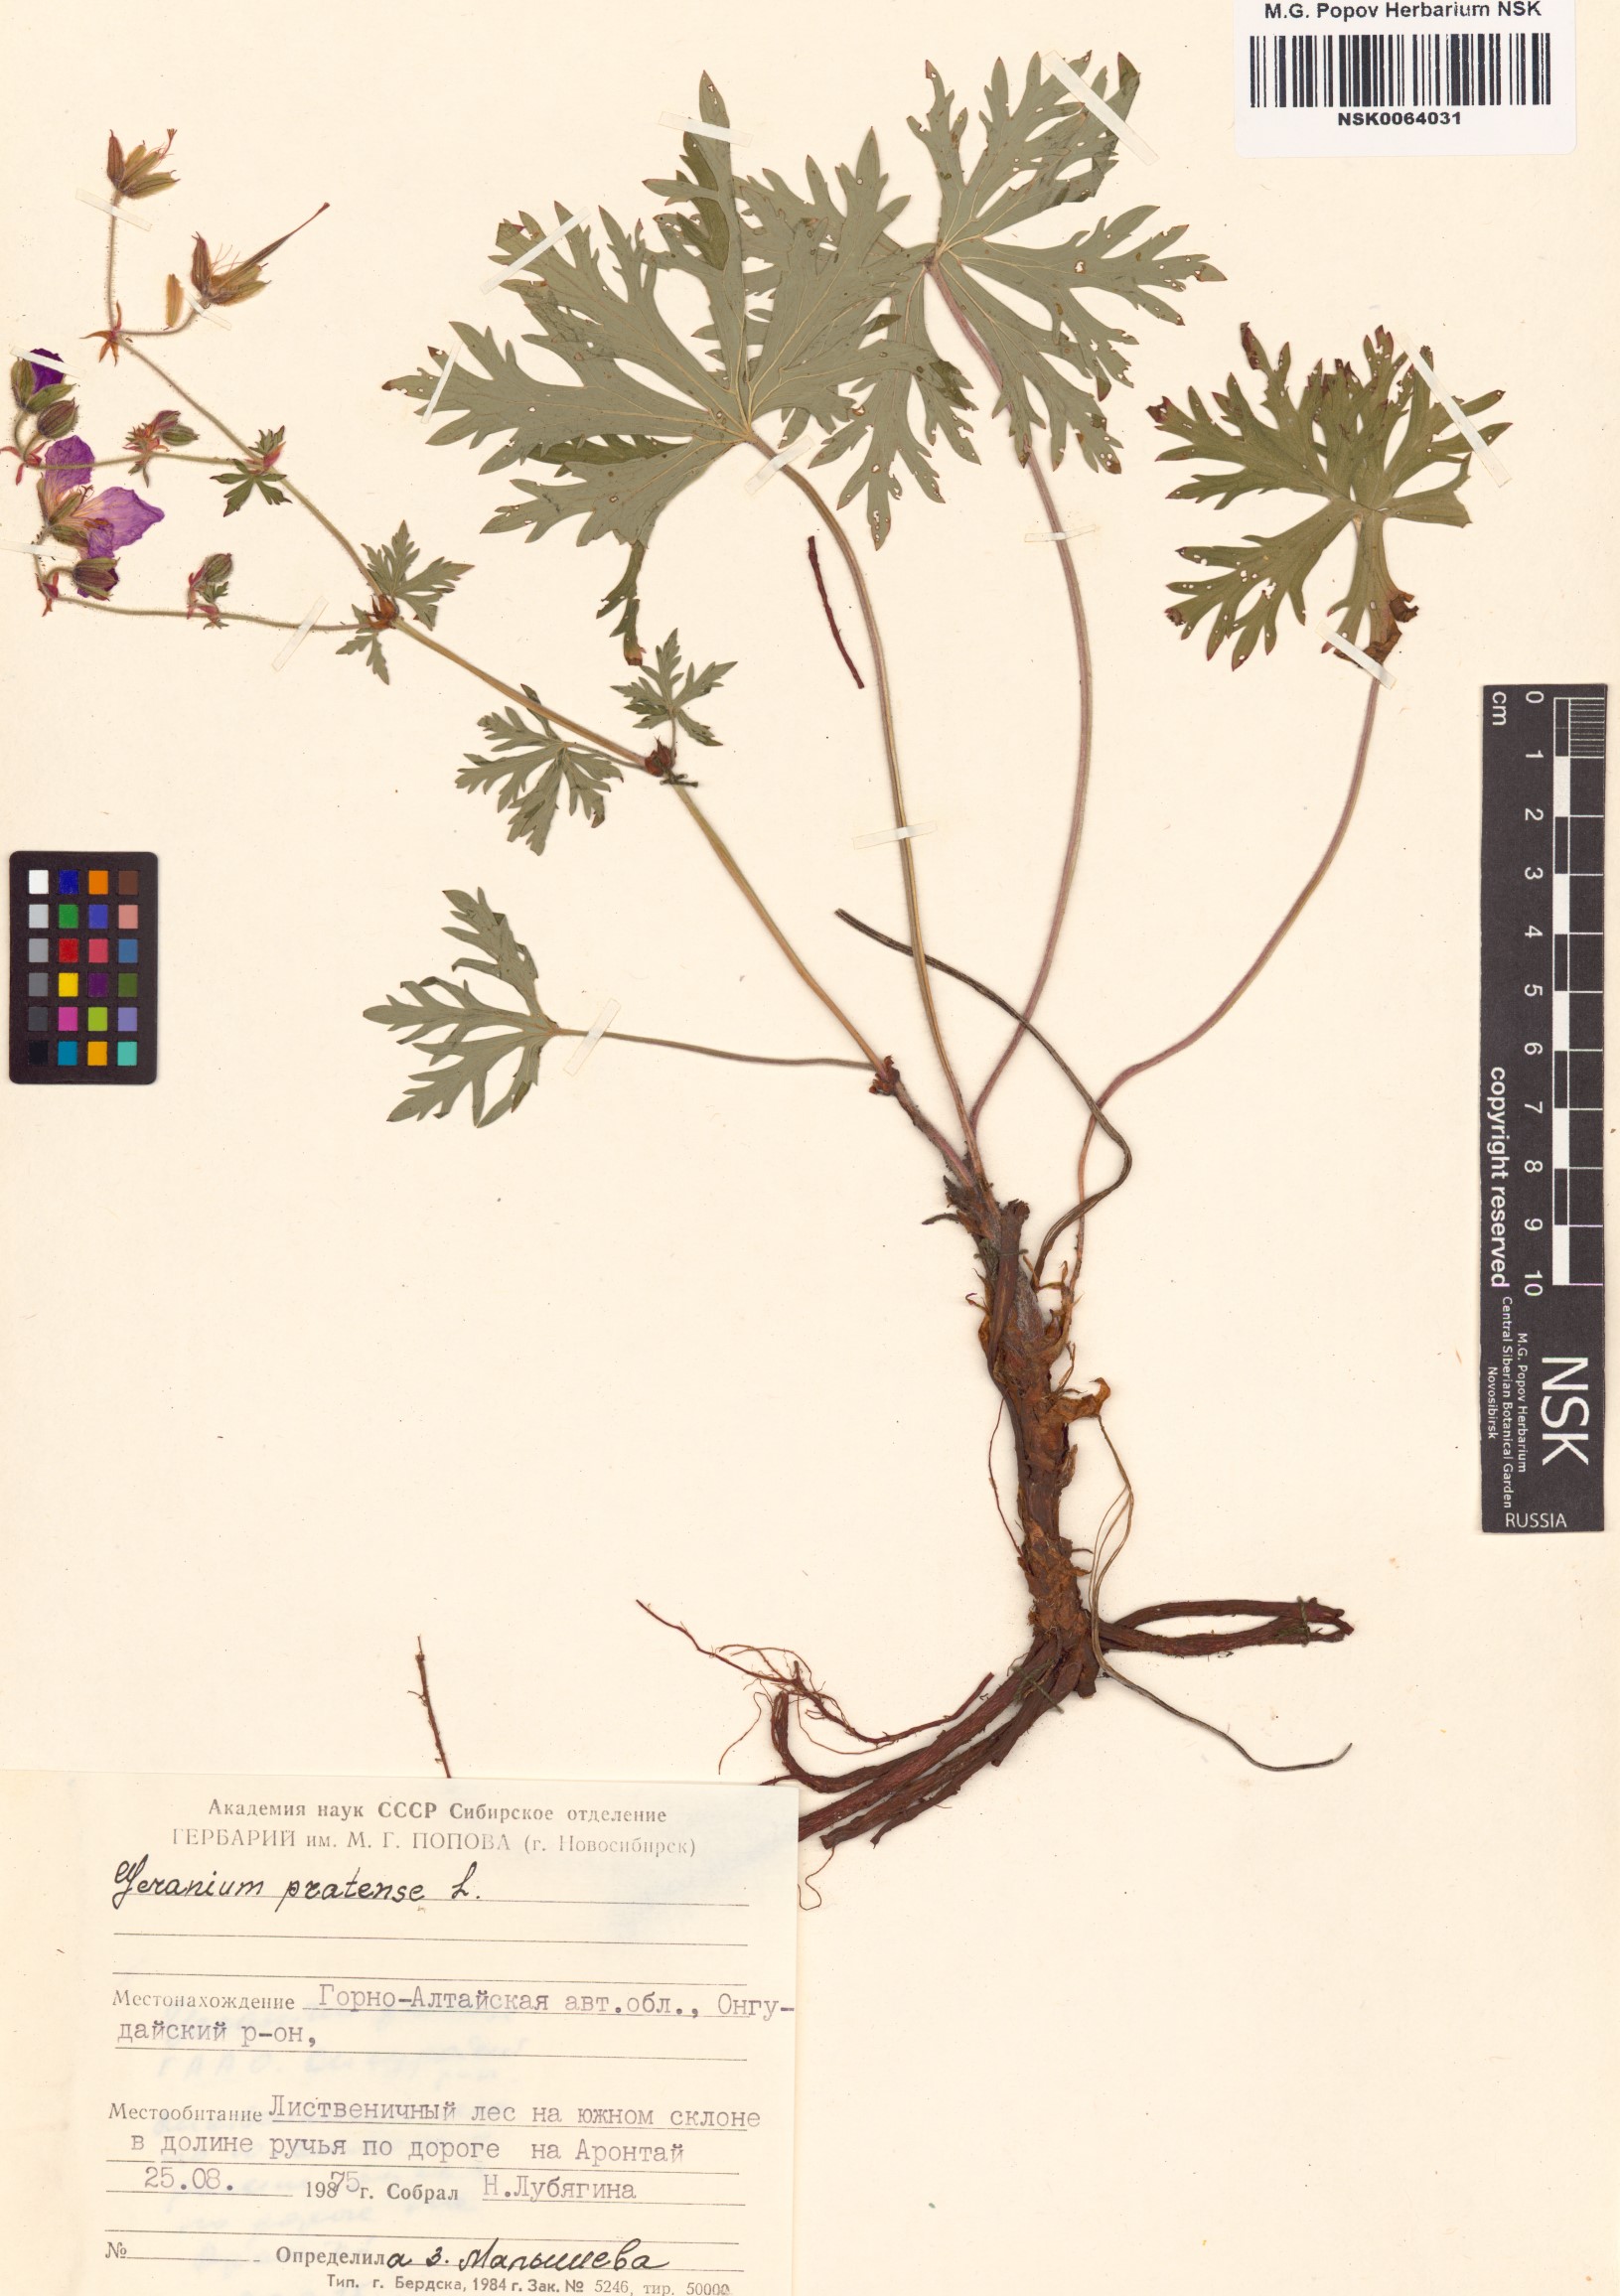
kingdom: Plantae
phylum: Tracheophyta
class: Magnoliopsida
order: Geraniales
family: Geraniaceae
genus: Geranium
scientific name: Geranium pratense
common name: Meadow crane's-bill
